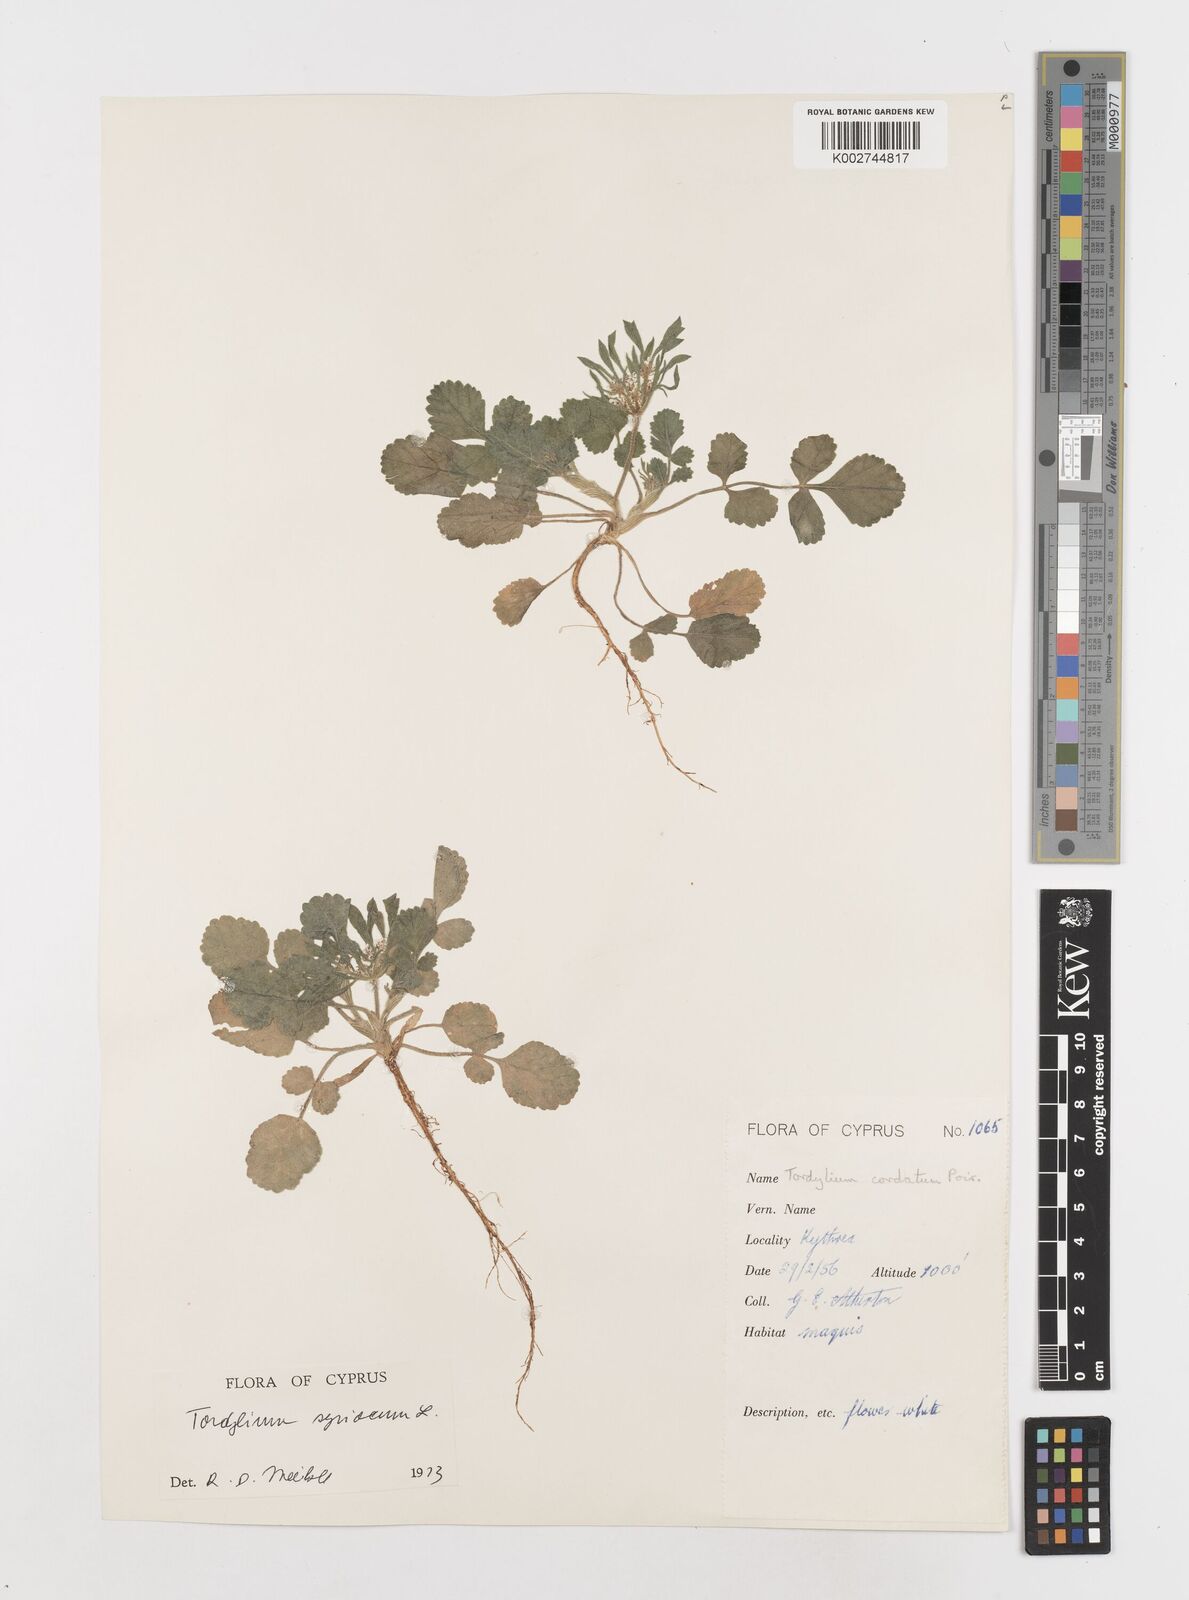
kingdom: Plantae
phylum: Tracheophyta
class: Magnoliopsida
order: Apiales
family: Apiaceae
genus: Tordylium
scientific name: Tordylium syriacum
